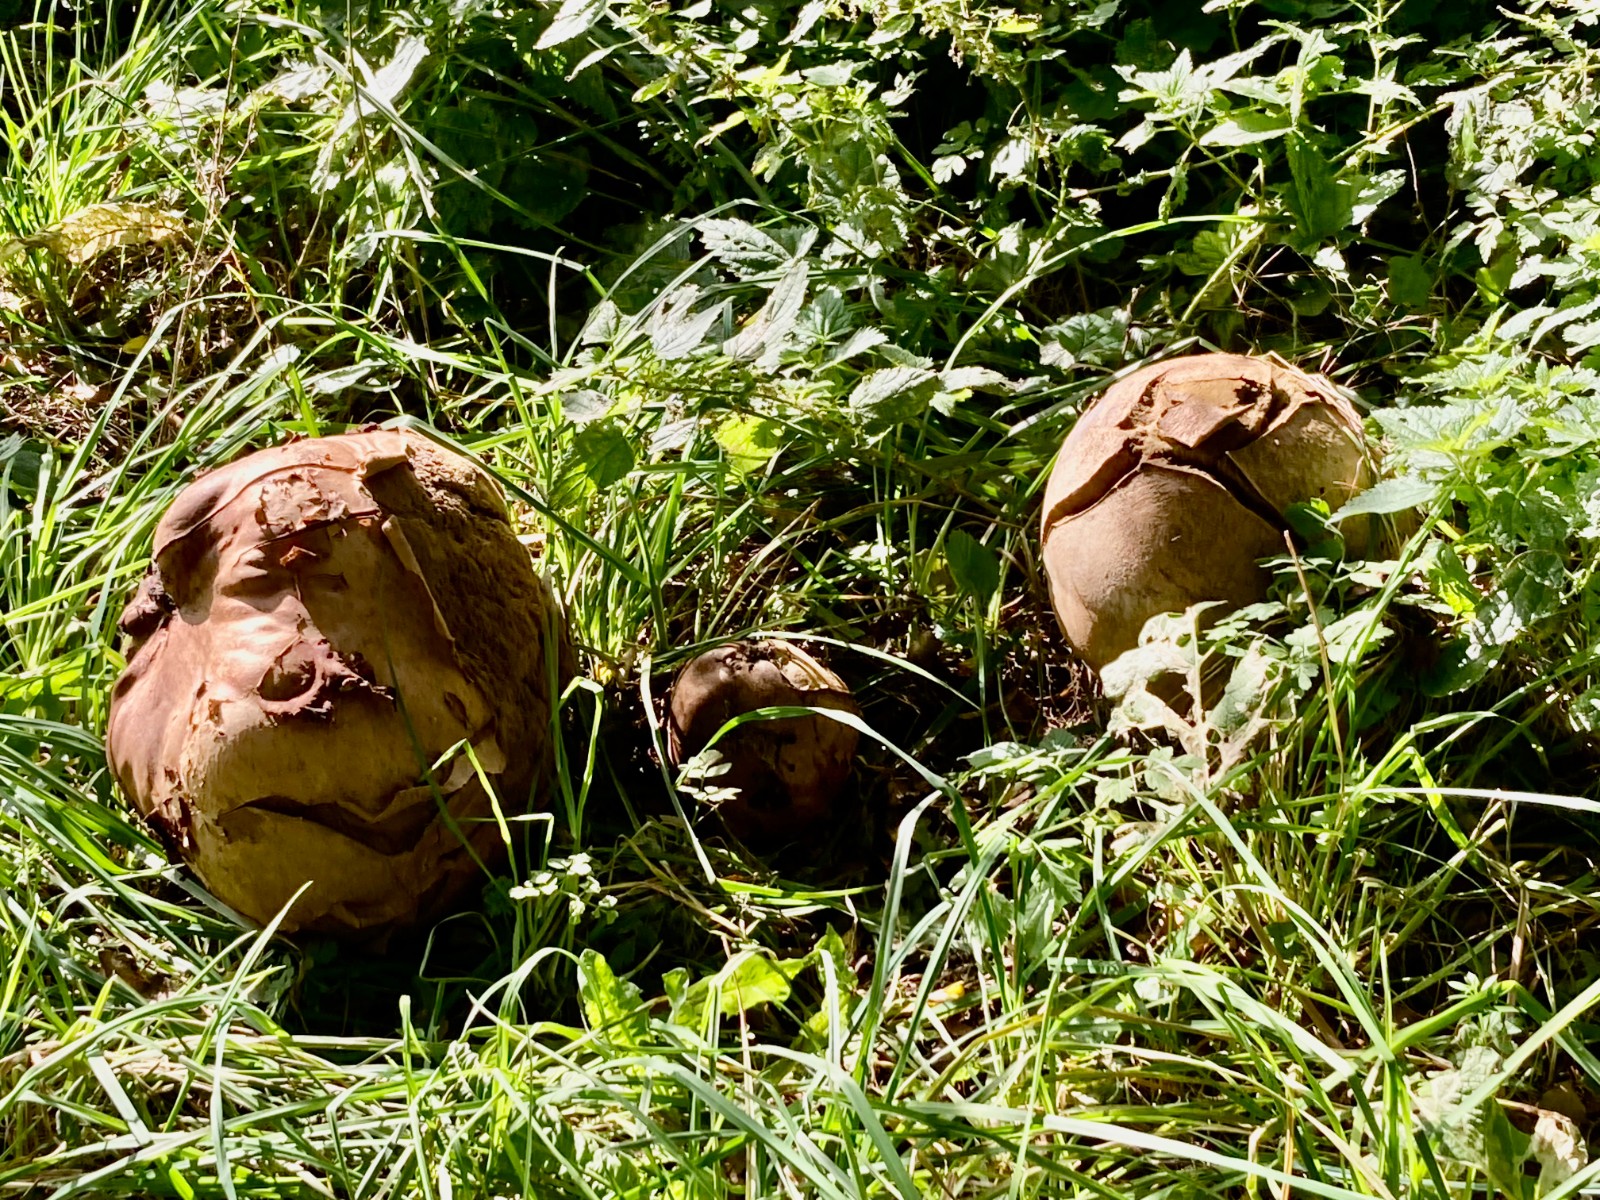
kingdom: Fungi
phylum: Basidiomycota
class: Agaricomycetes
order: Agaricales
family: Lycoperdaceae
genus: Calvatia
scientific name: Calvatia gigantea
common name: kæmpestøvbold
